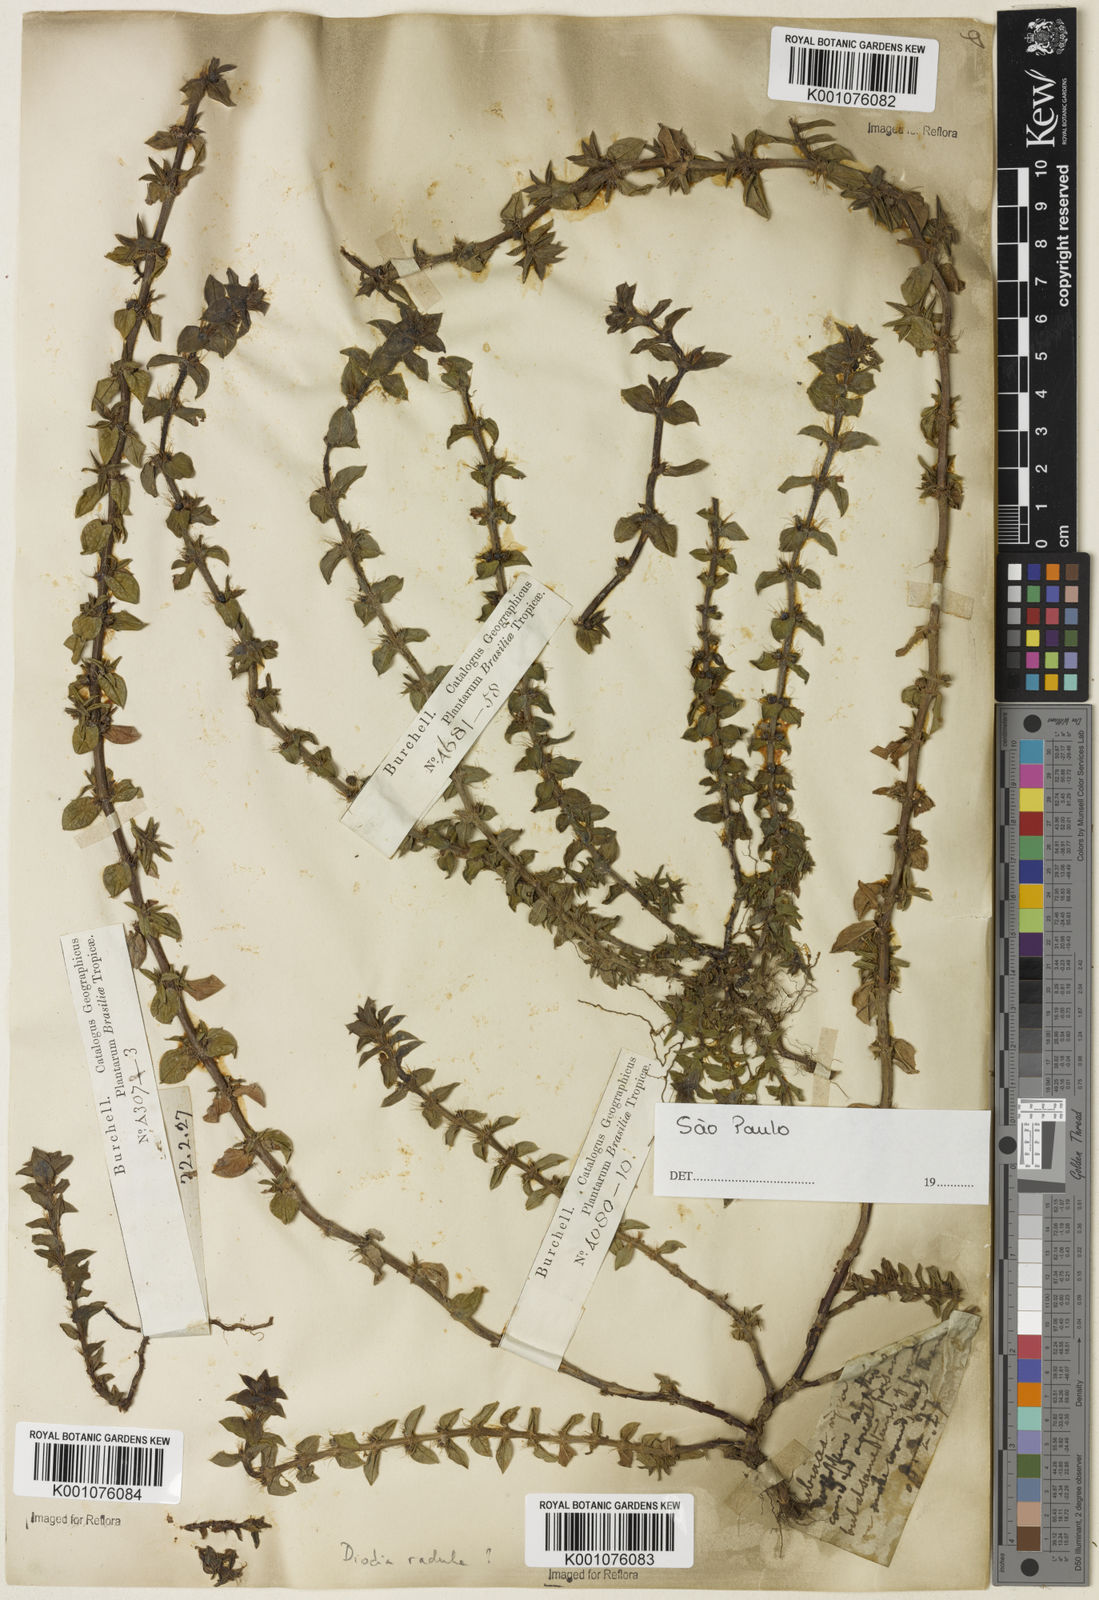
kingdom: Plantae
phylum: Tracheophyta
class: Magnoliopsida
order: Gentianales
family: Rubiaceae
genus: Hexasepalum
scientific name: Hexasepalum radulum
